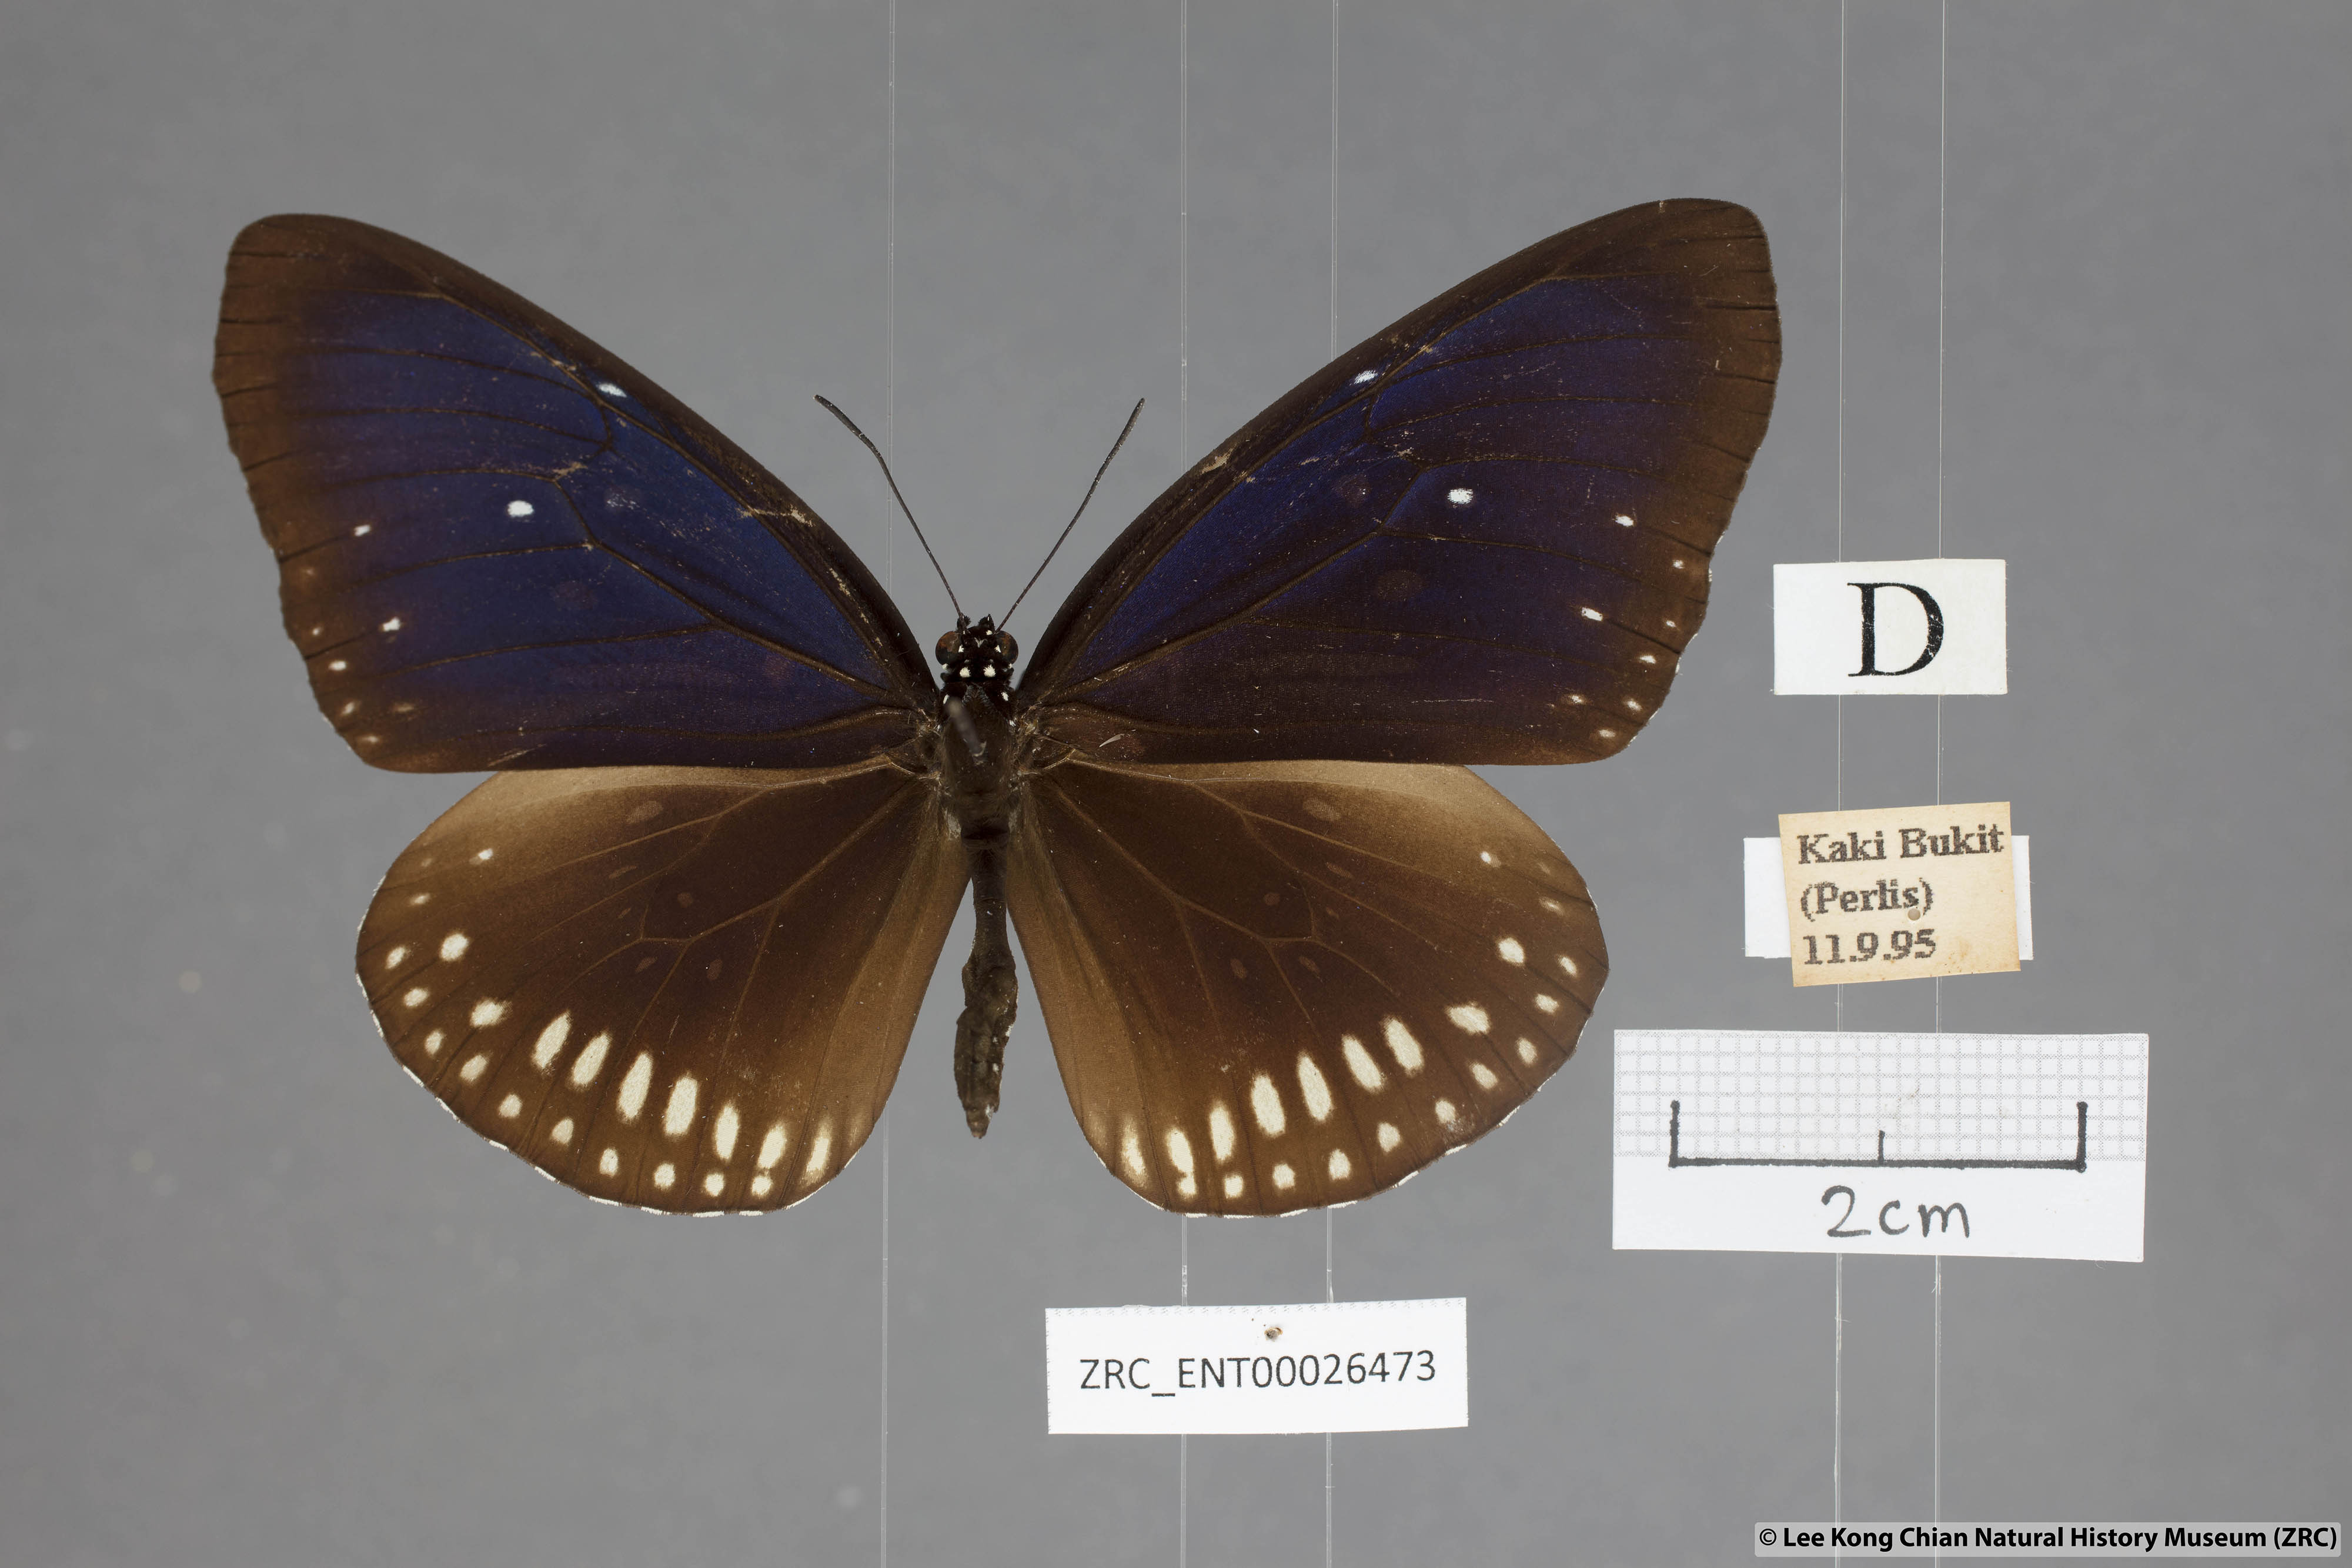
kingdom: Animalia
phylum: Arthropoda
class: Insecta
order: Lepidoptera
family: Nymphalidae
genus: Euploea
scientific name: Euploea modesta
